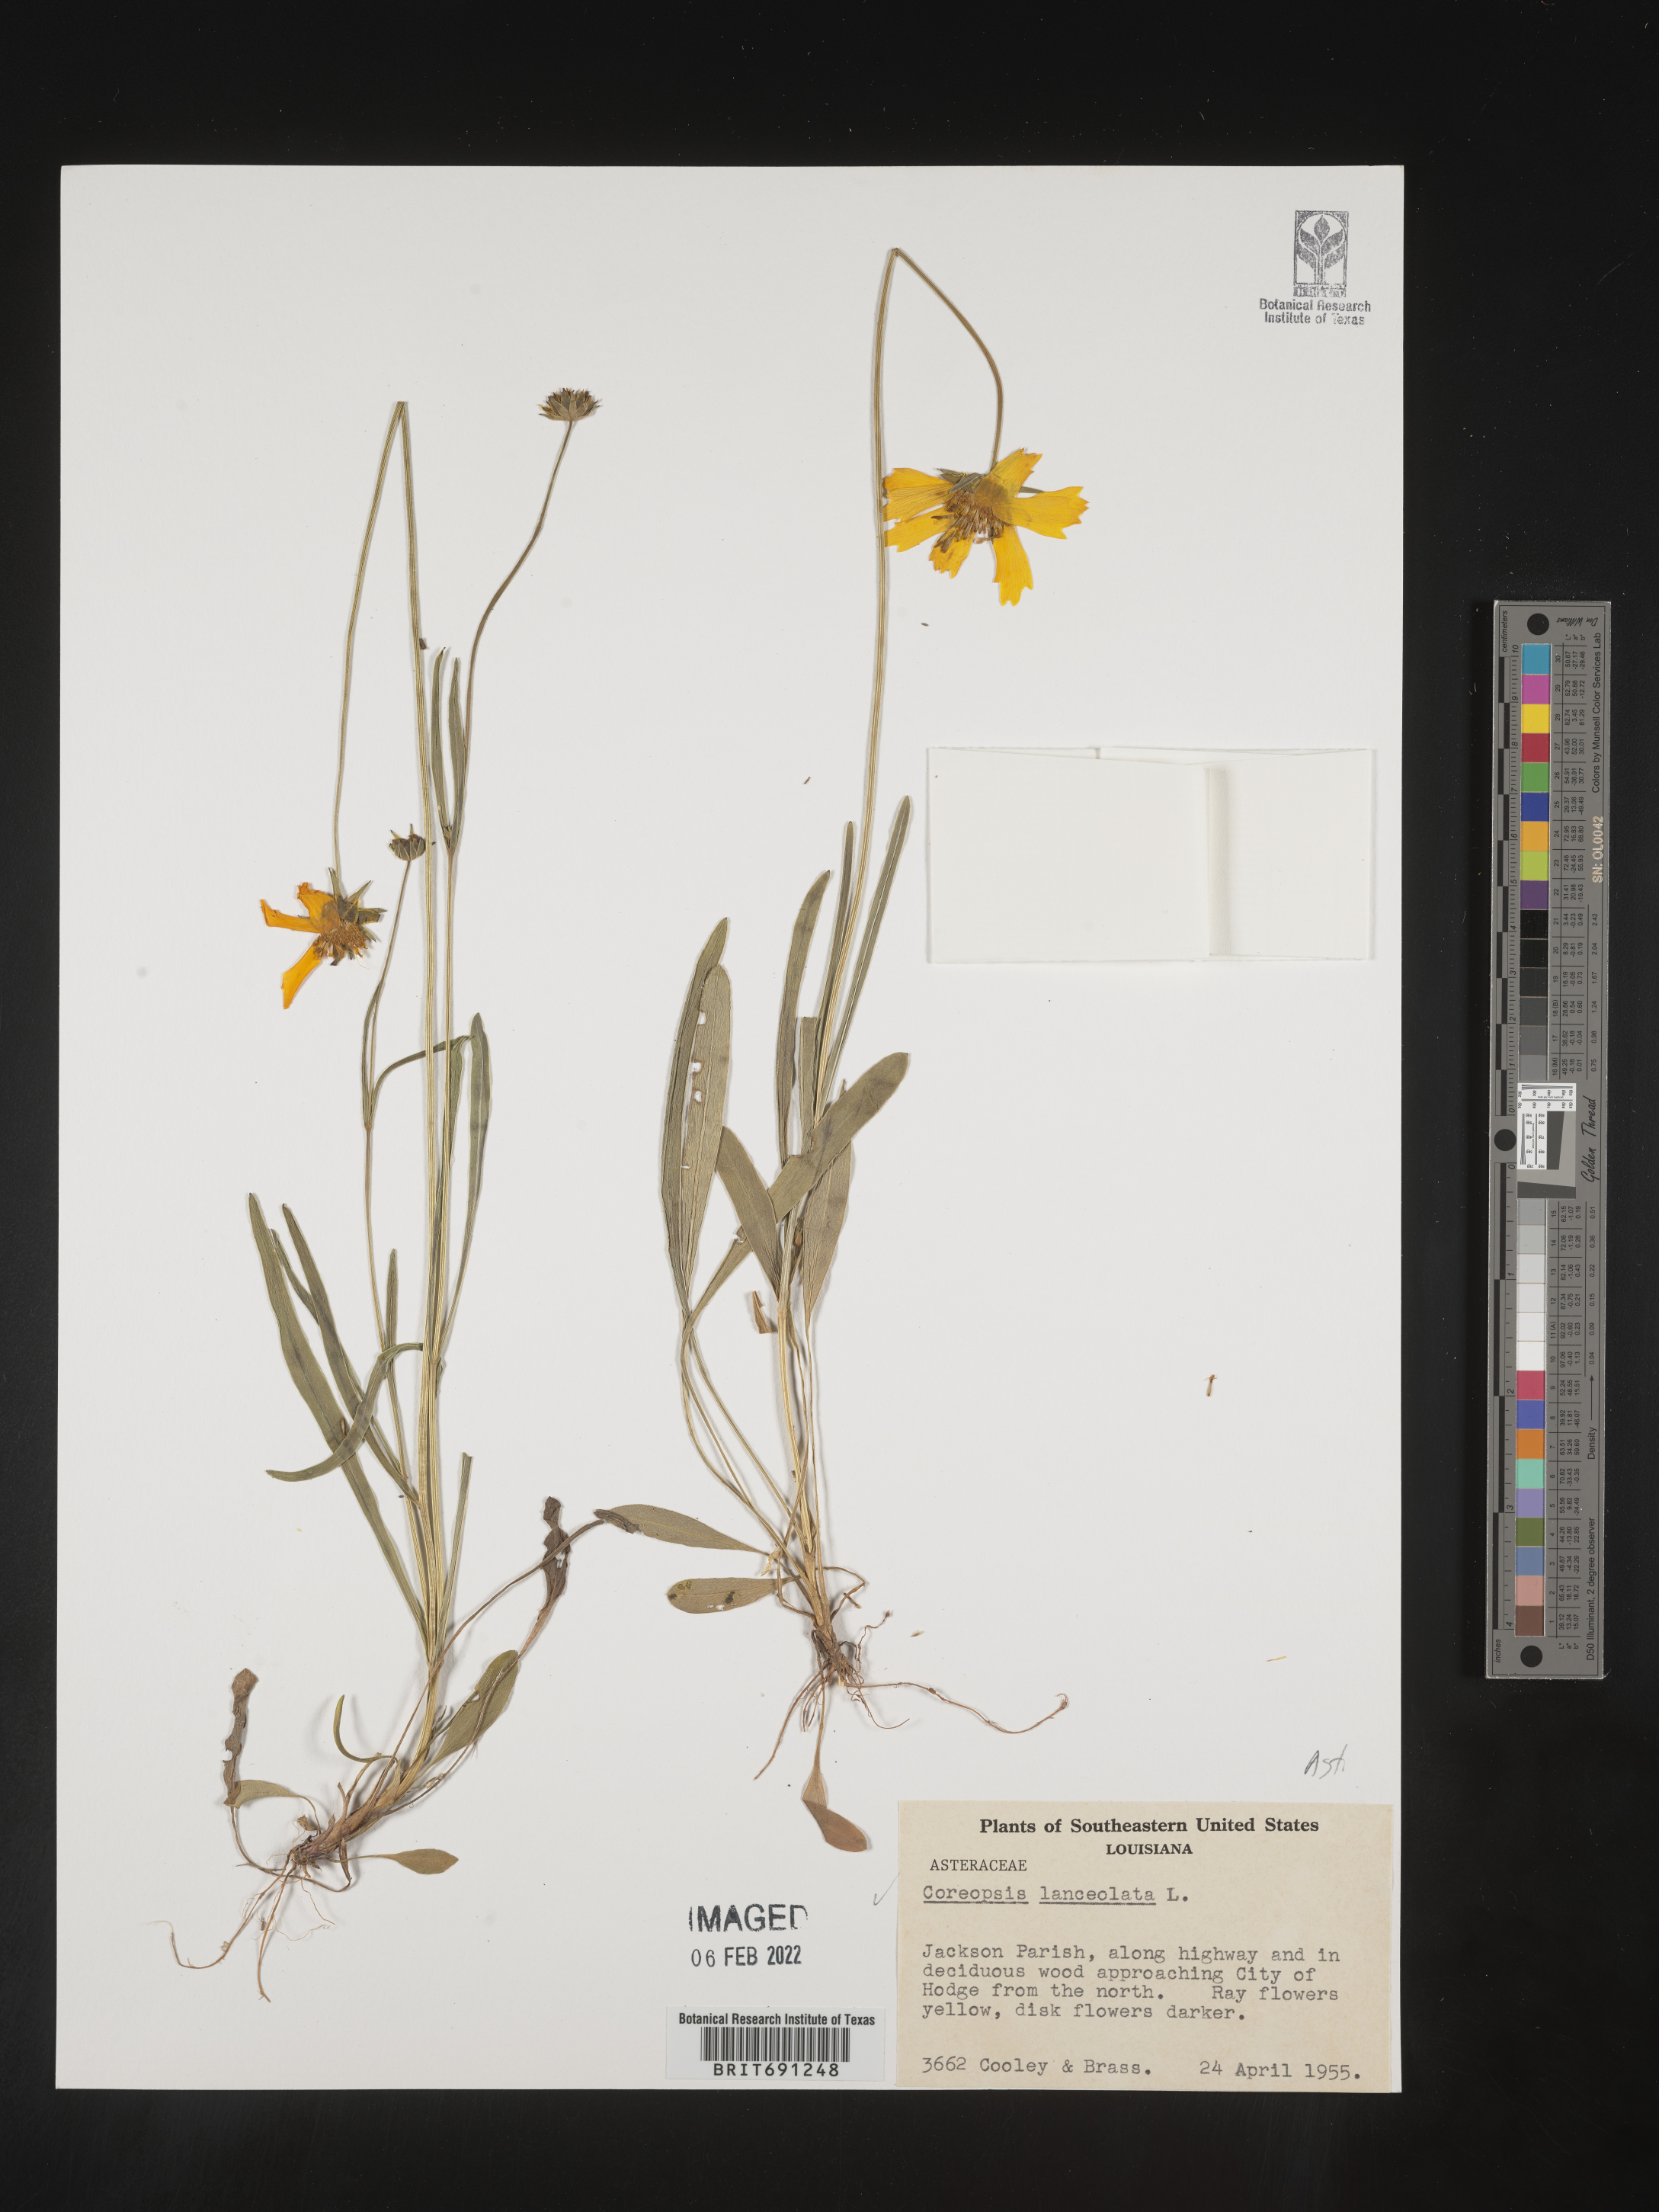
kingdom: Plantae
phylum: Tracheophyta
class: Magnoliopsida
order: Asterales
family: Asteraceae
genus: Coreopsis
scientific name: Coreopsis lanceolata
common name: Garden coreopsis
